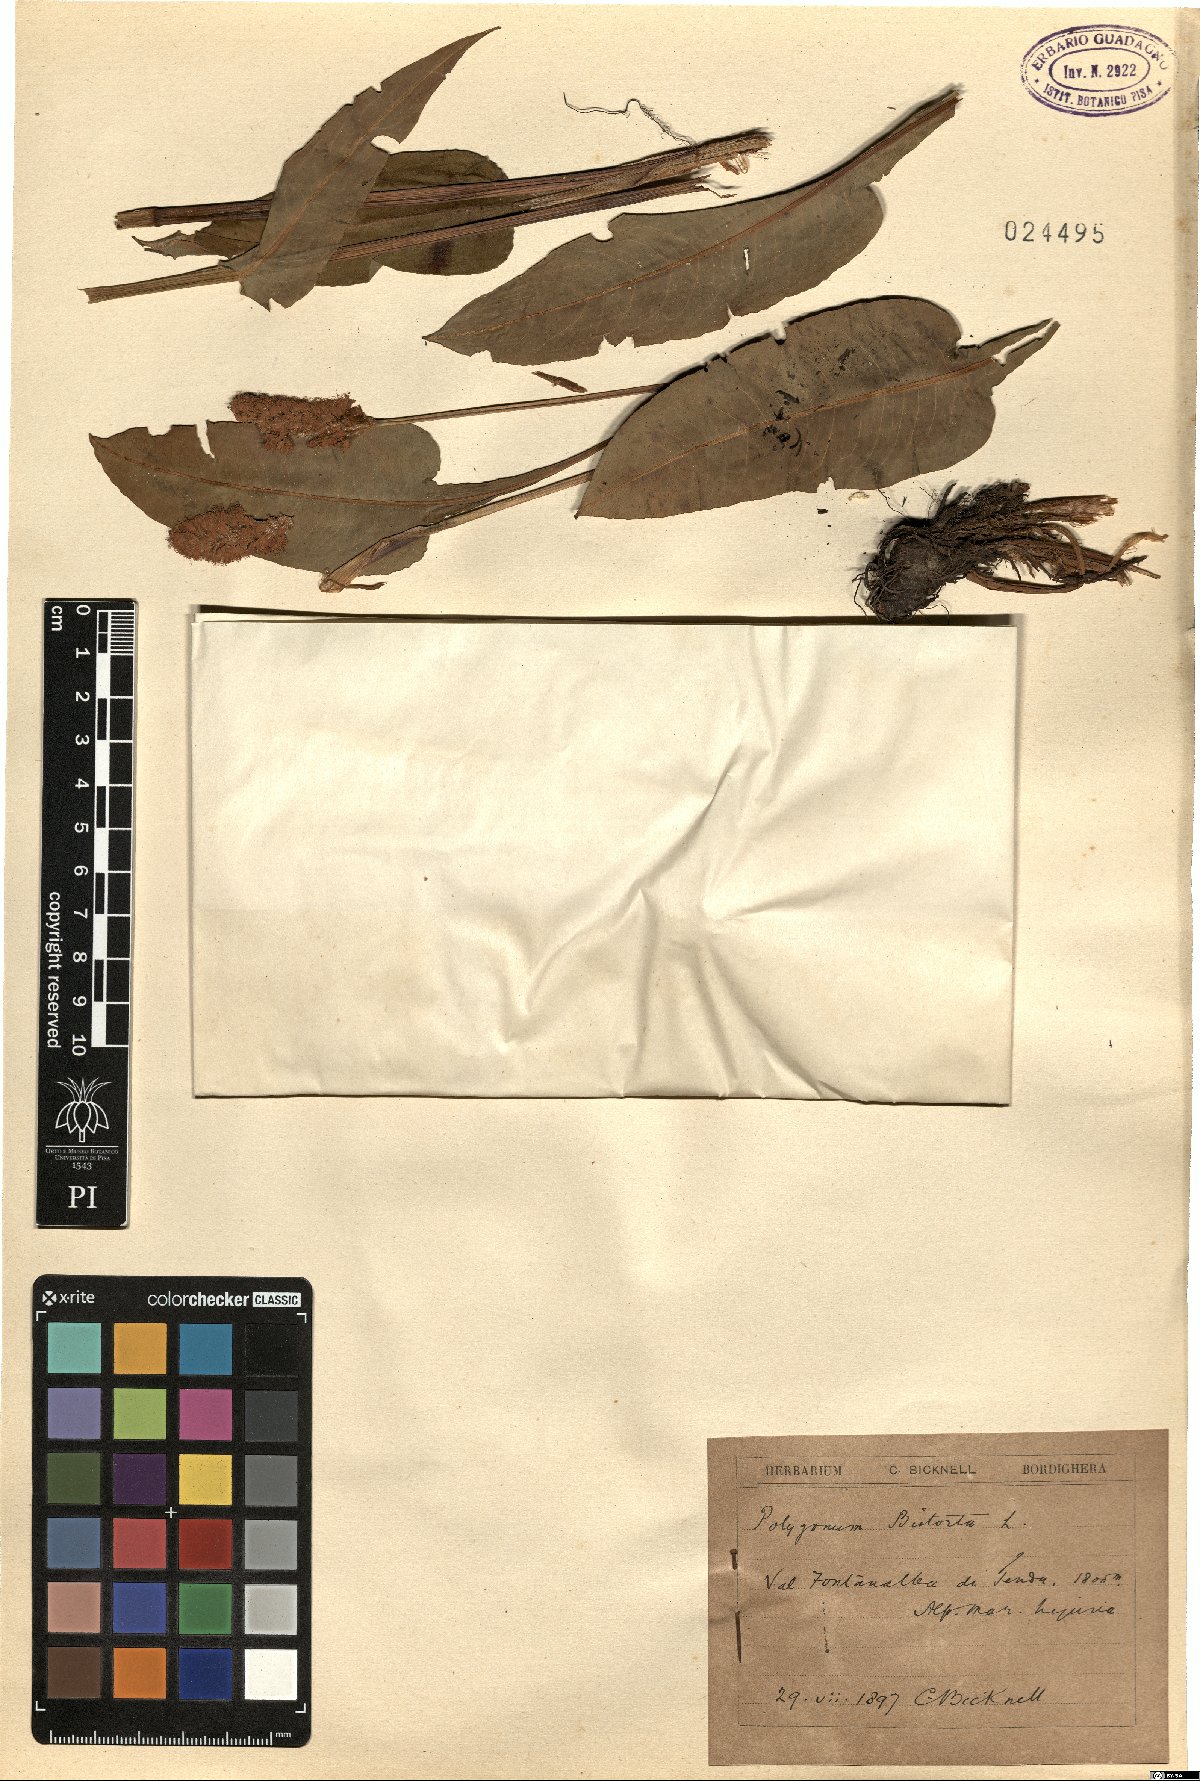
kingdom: Plantae
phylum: Tracheophyta
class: Magnoliopsida
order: Caryophyllales
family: Polygonaceae
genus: Bistorta
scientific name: Bistorta officinalis
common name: Common bistort
